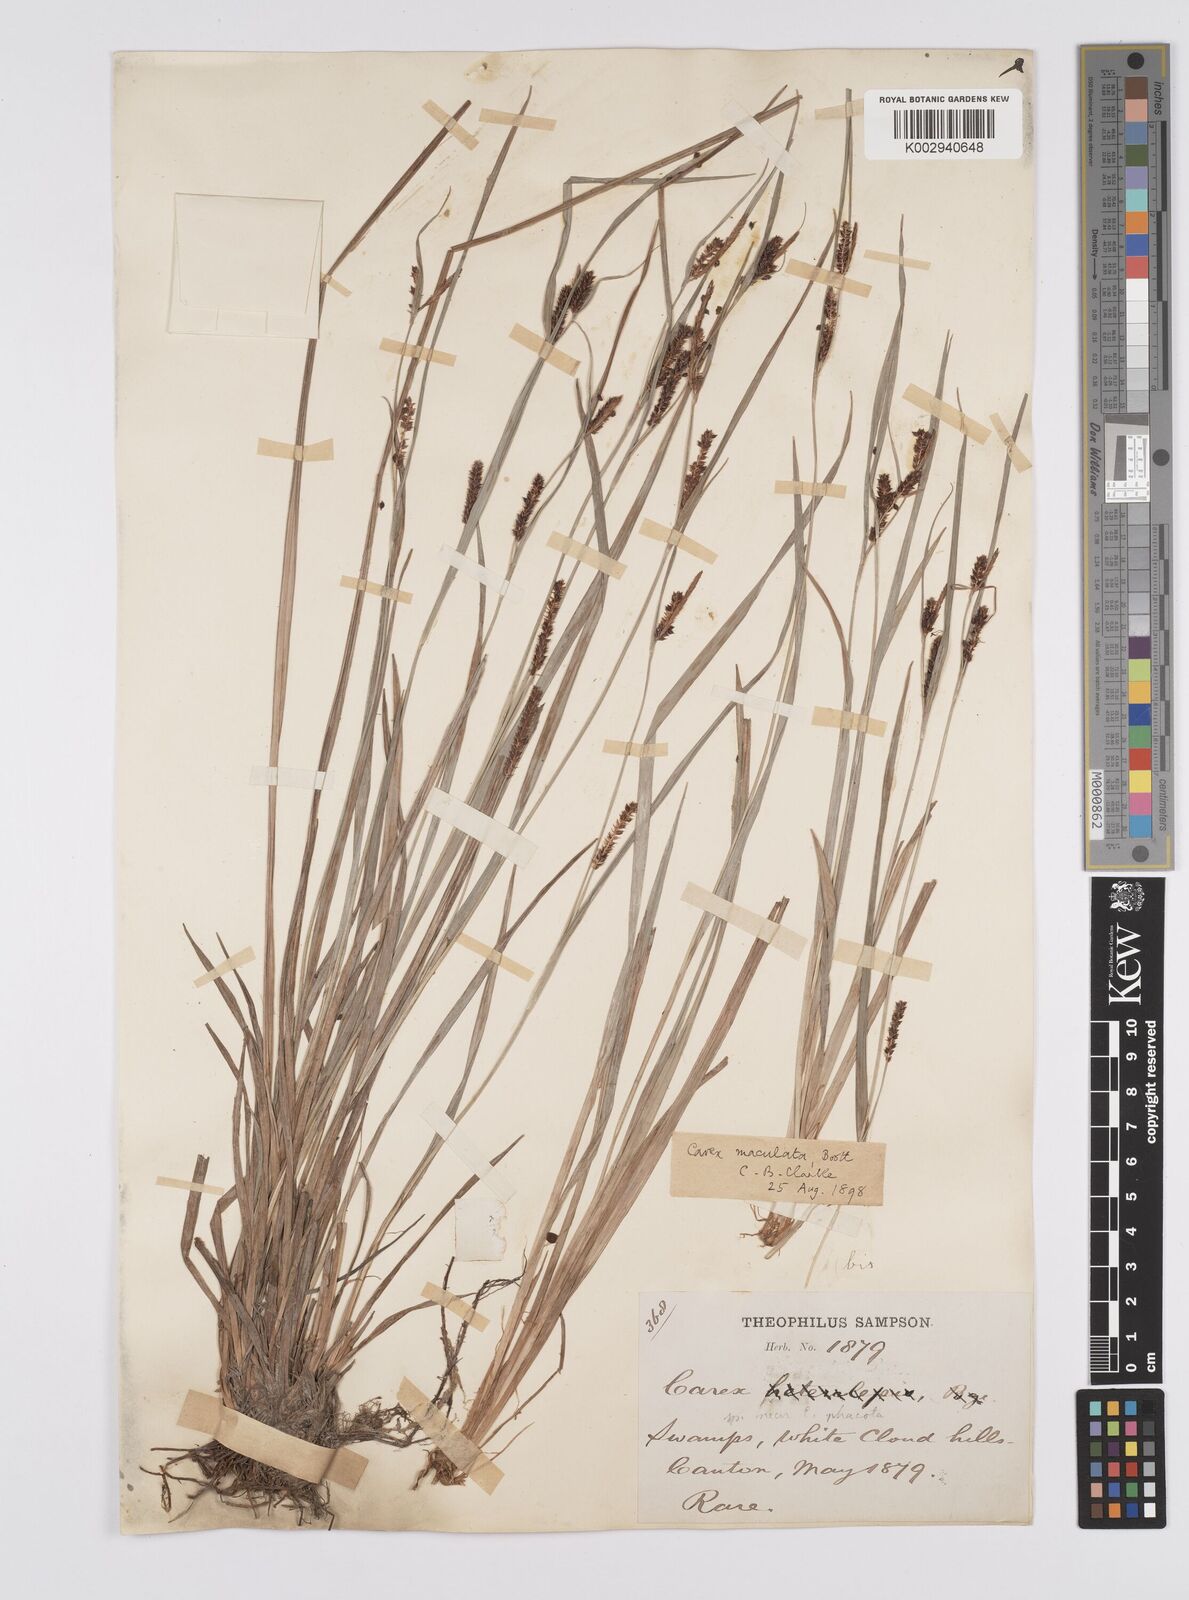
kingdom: Plantae
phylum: Tracheophyta
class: Liliopsida
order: Poales
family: Cyperaceae
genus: Carex
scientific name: Carex maculata
